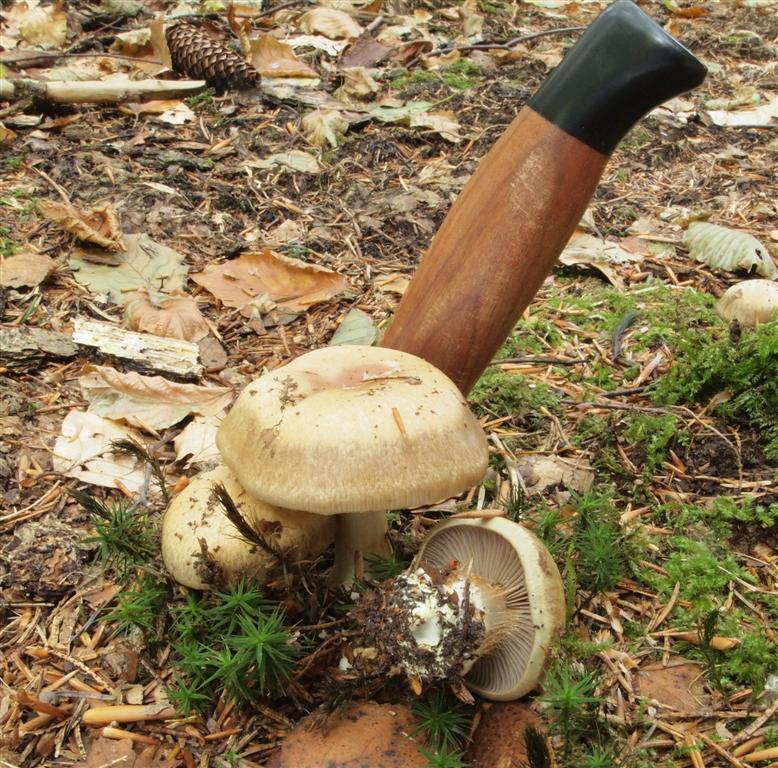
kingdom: Fungi
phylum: Basidiomycota
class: Agaricomycetes
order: Agaricales
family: Cortinariaceae
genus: Thaxterogaster
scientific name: Thaxterogaster herpeticus
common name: grønrandet slørhat
